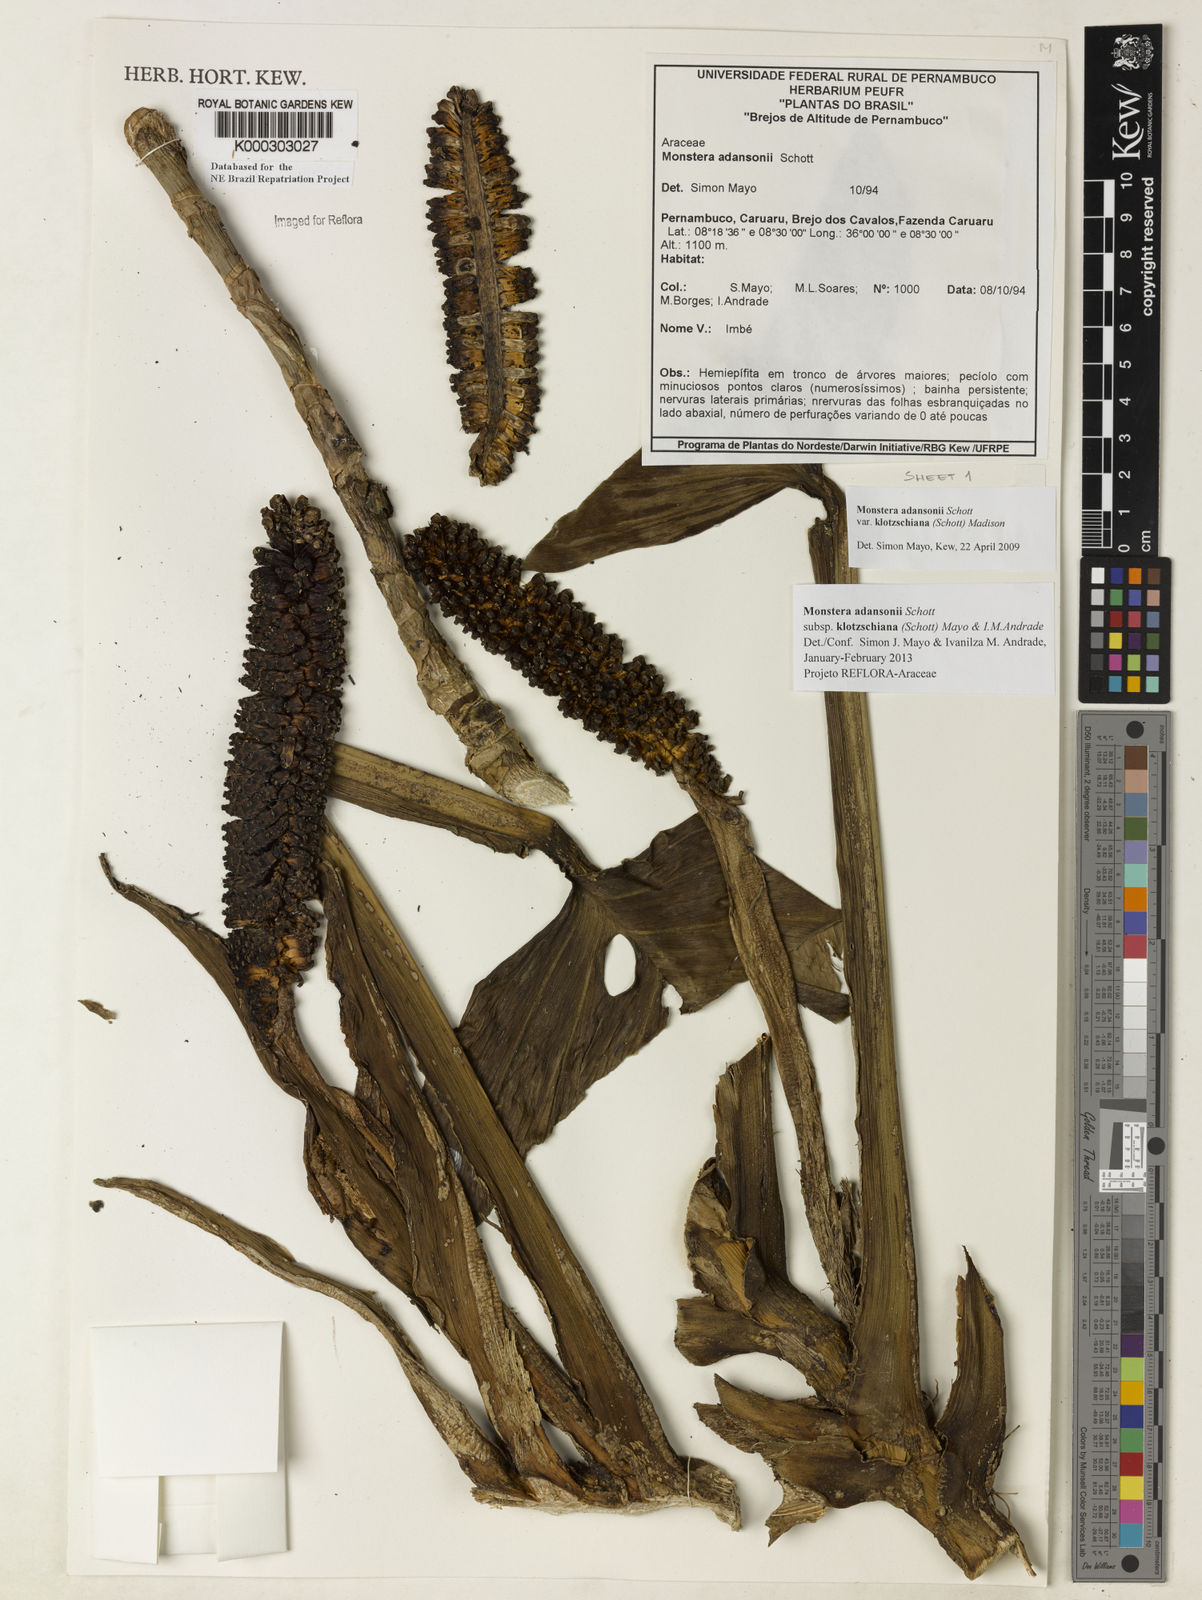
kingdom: Plantae
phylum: Tracheophyta
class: Liliopsida
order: Alismatales
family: Araceae
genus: Monstera
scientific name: Monstera adansonii
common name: Tarovine
